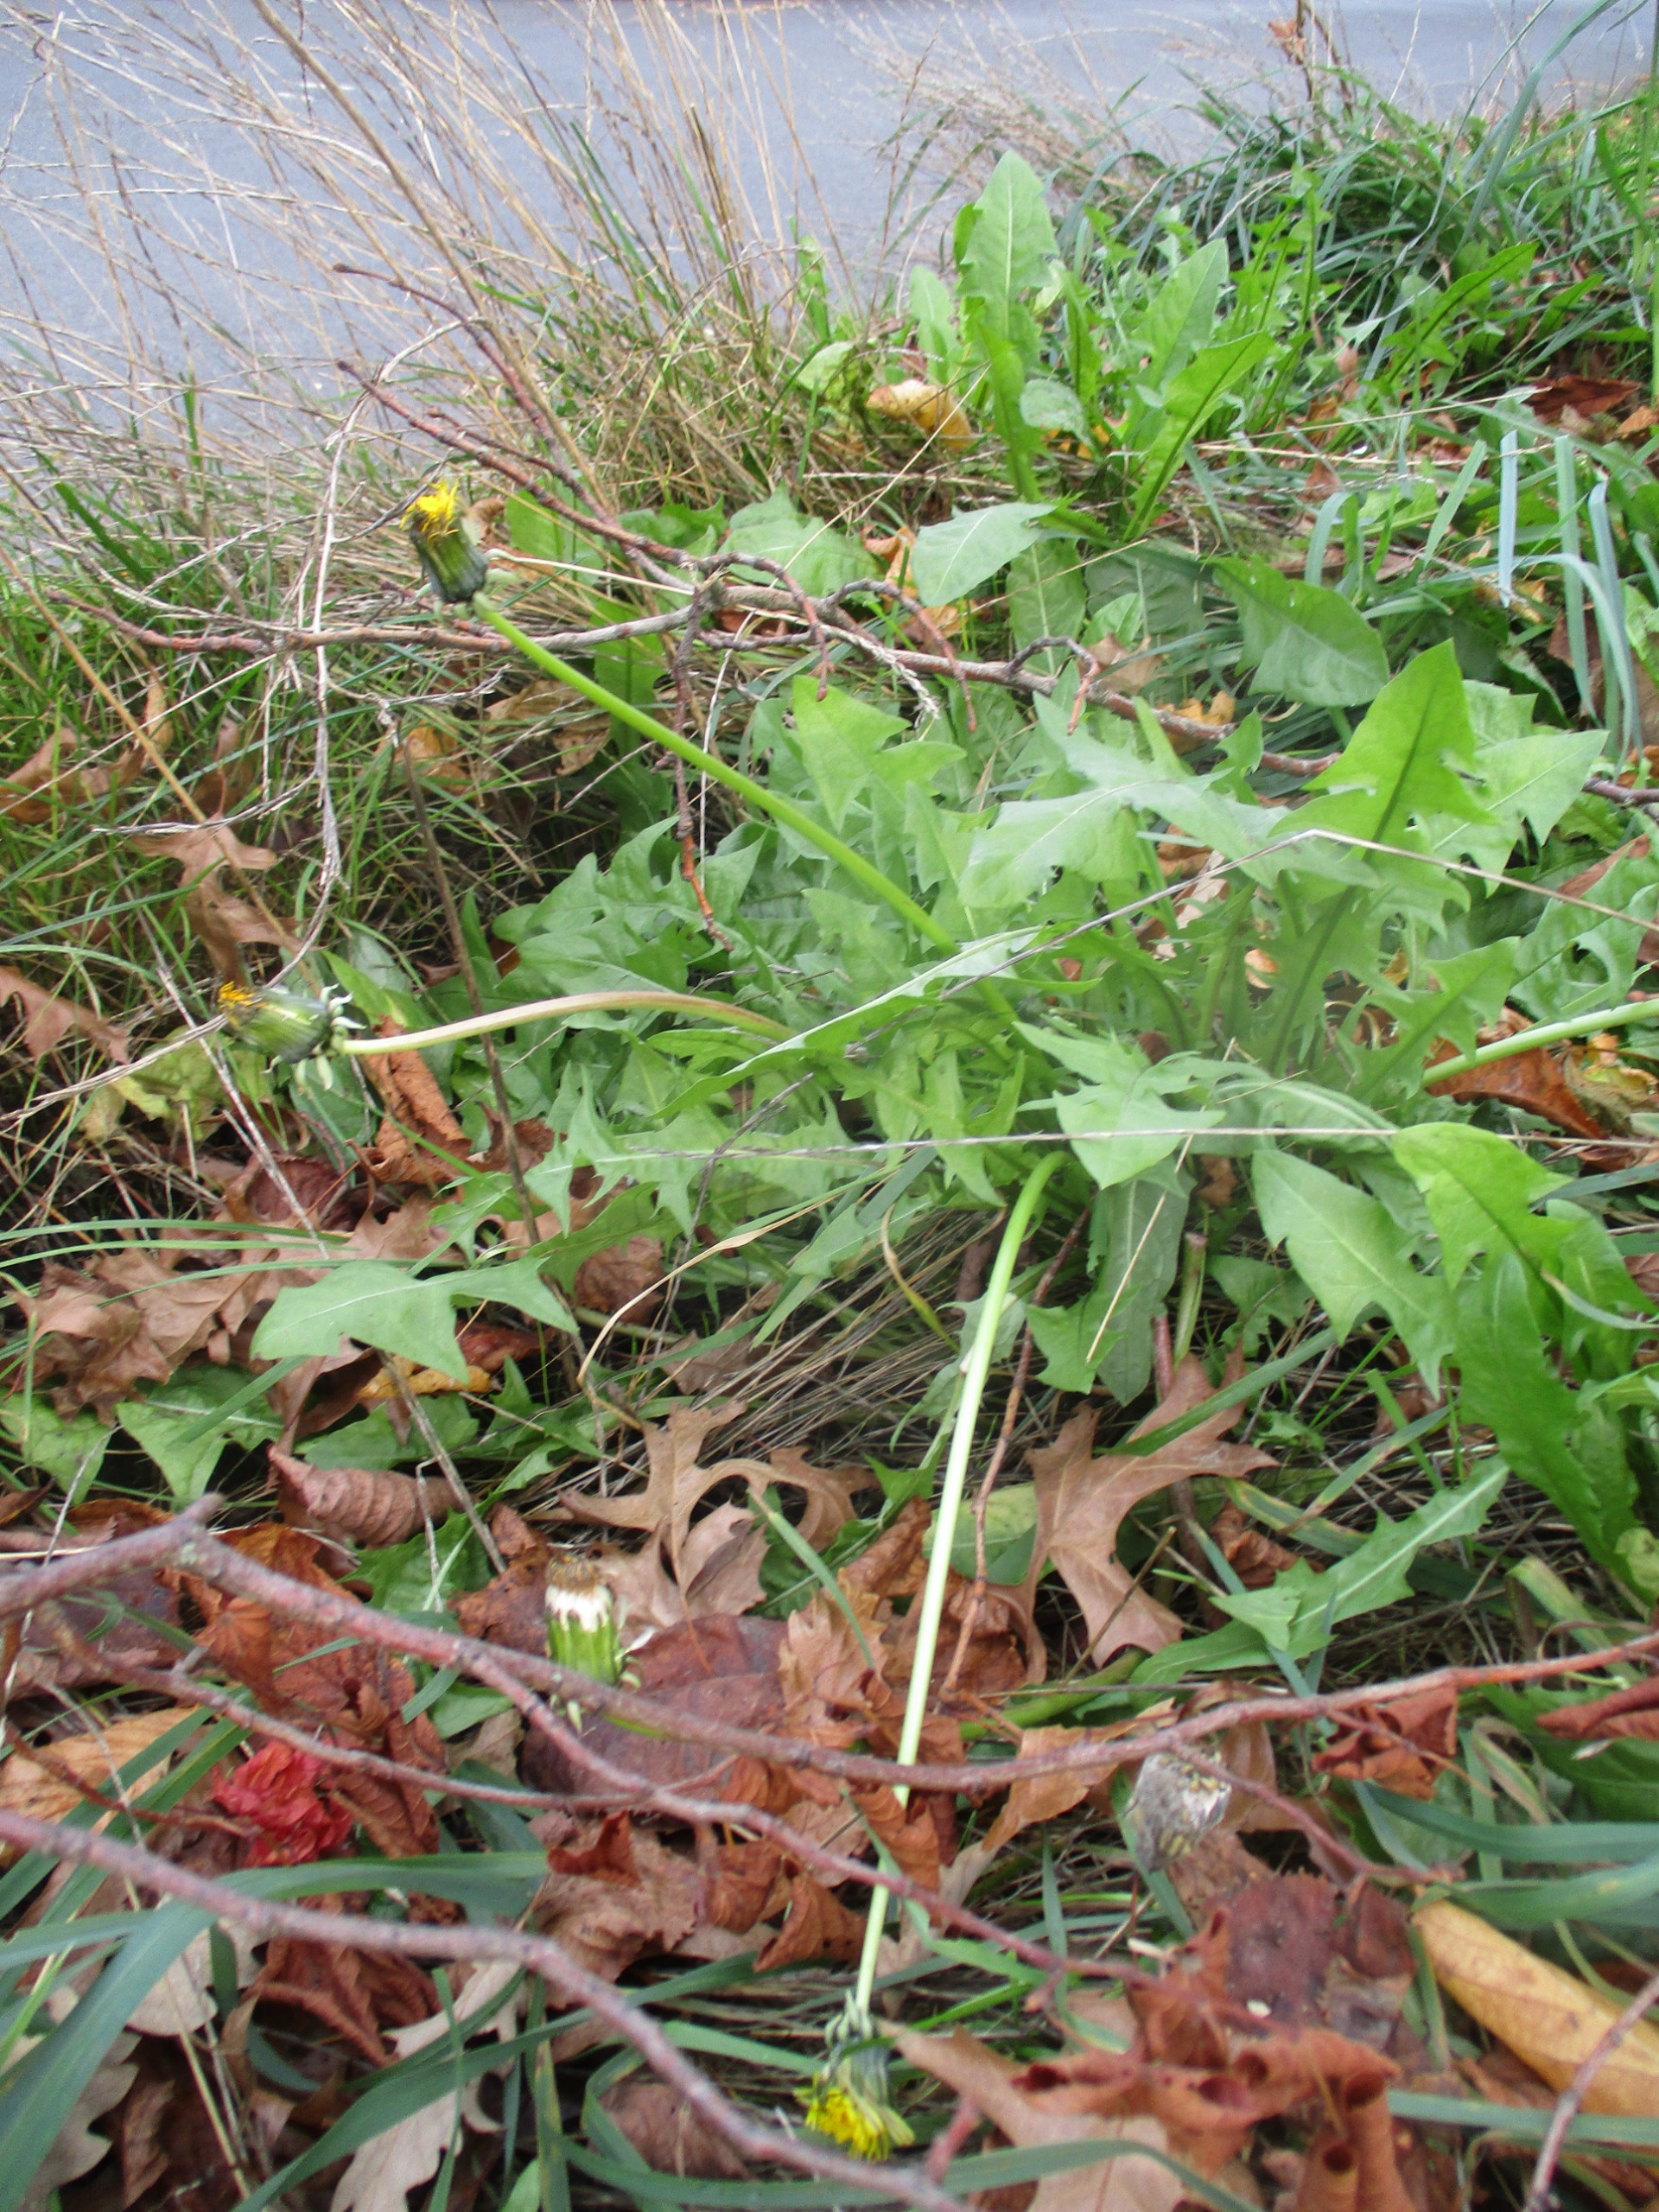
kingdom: Plantae
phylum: Tracheophyta
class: Magnoliopsida
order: Asterales
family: Asteraceae
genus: Taraxacum
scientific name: Taraxacum
